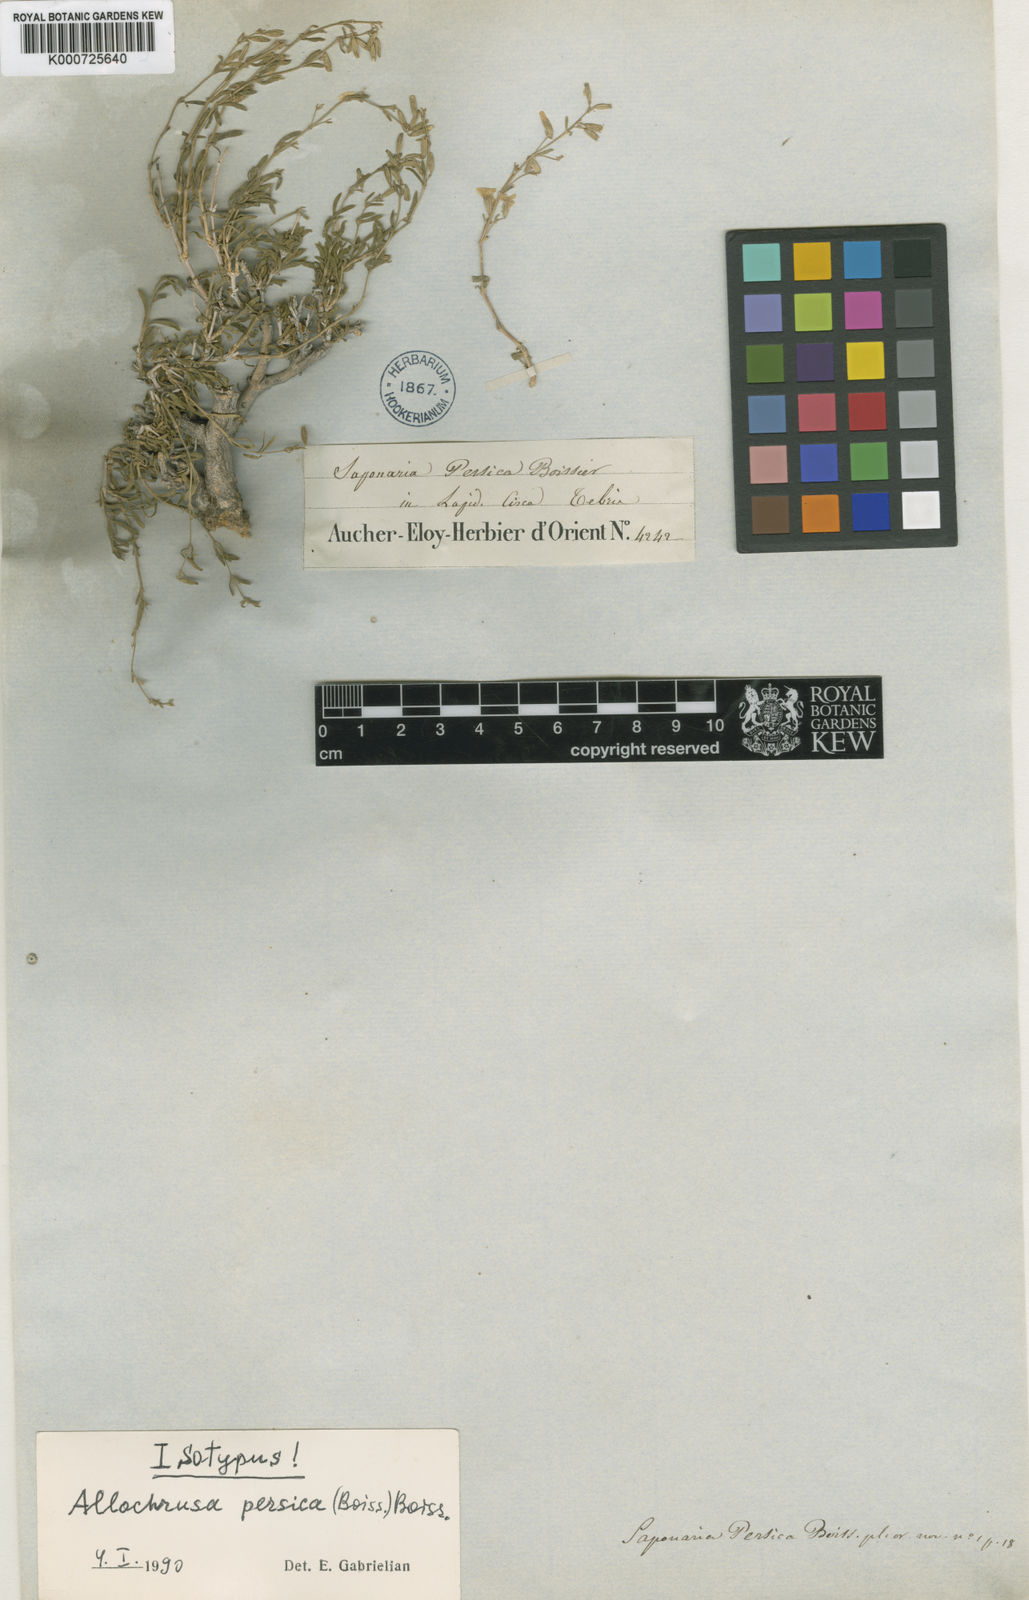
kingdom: Plantae
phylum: Tracheophyta
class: Magnoliopsida
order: Caryophyllales
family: Caryophyllaceae
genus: Acanthophyllum
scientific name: Acanthophyllum persicum
